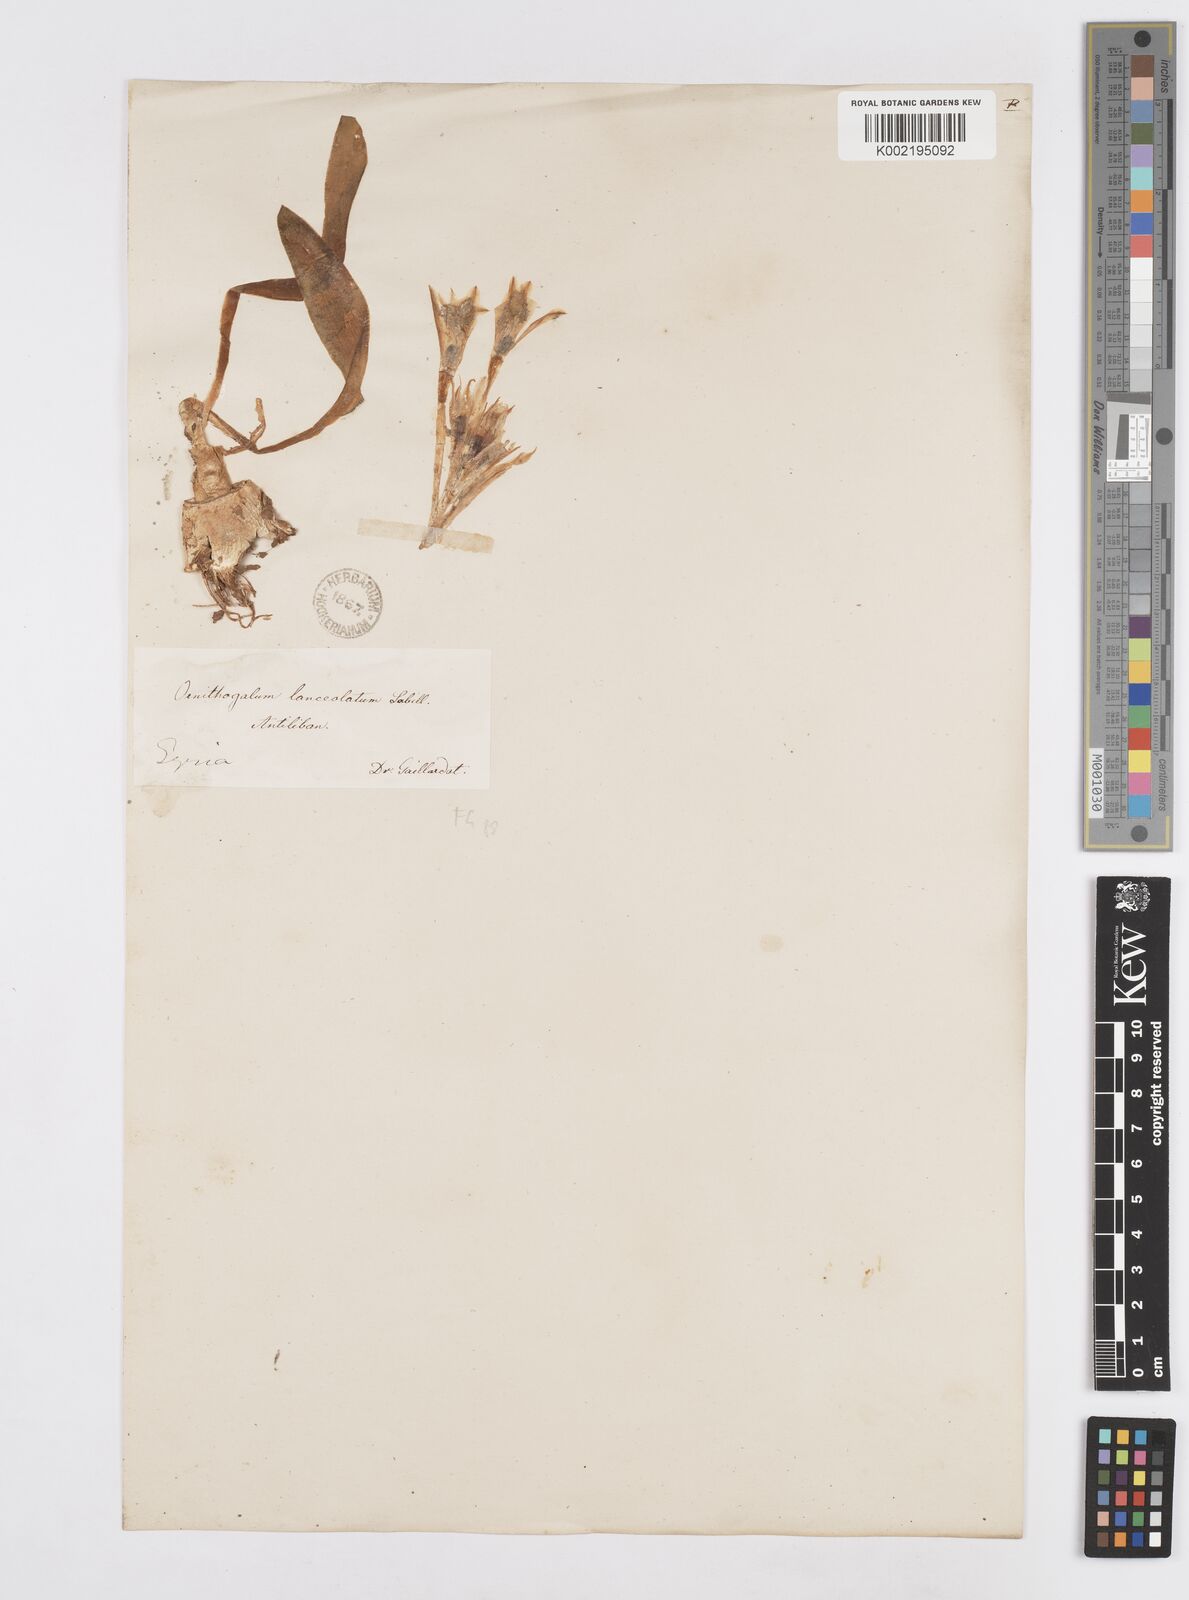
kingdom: Plantae
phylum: Tracheophyta
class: Liliopsida
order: Asparagales
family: Asparagaceae
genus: Ornithogalum
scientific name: Ornithogalum lanceolatum
